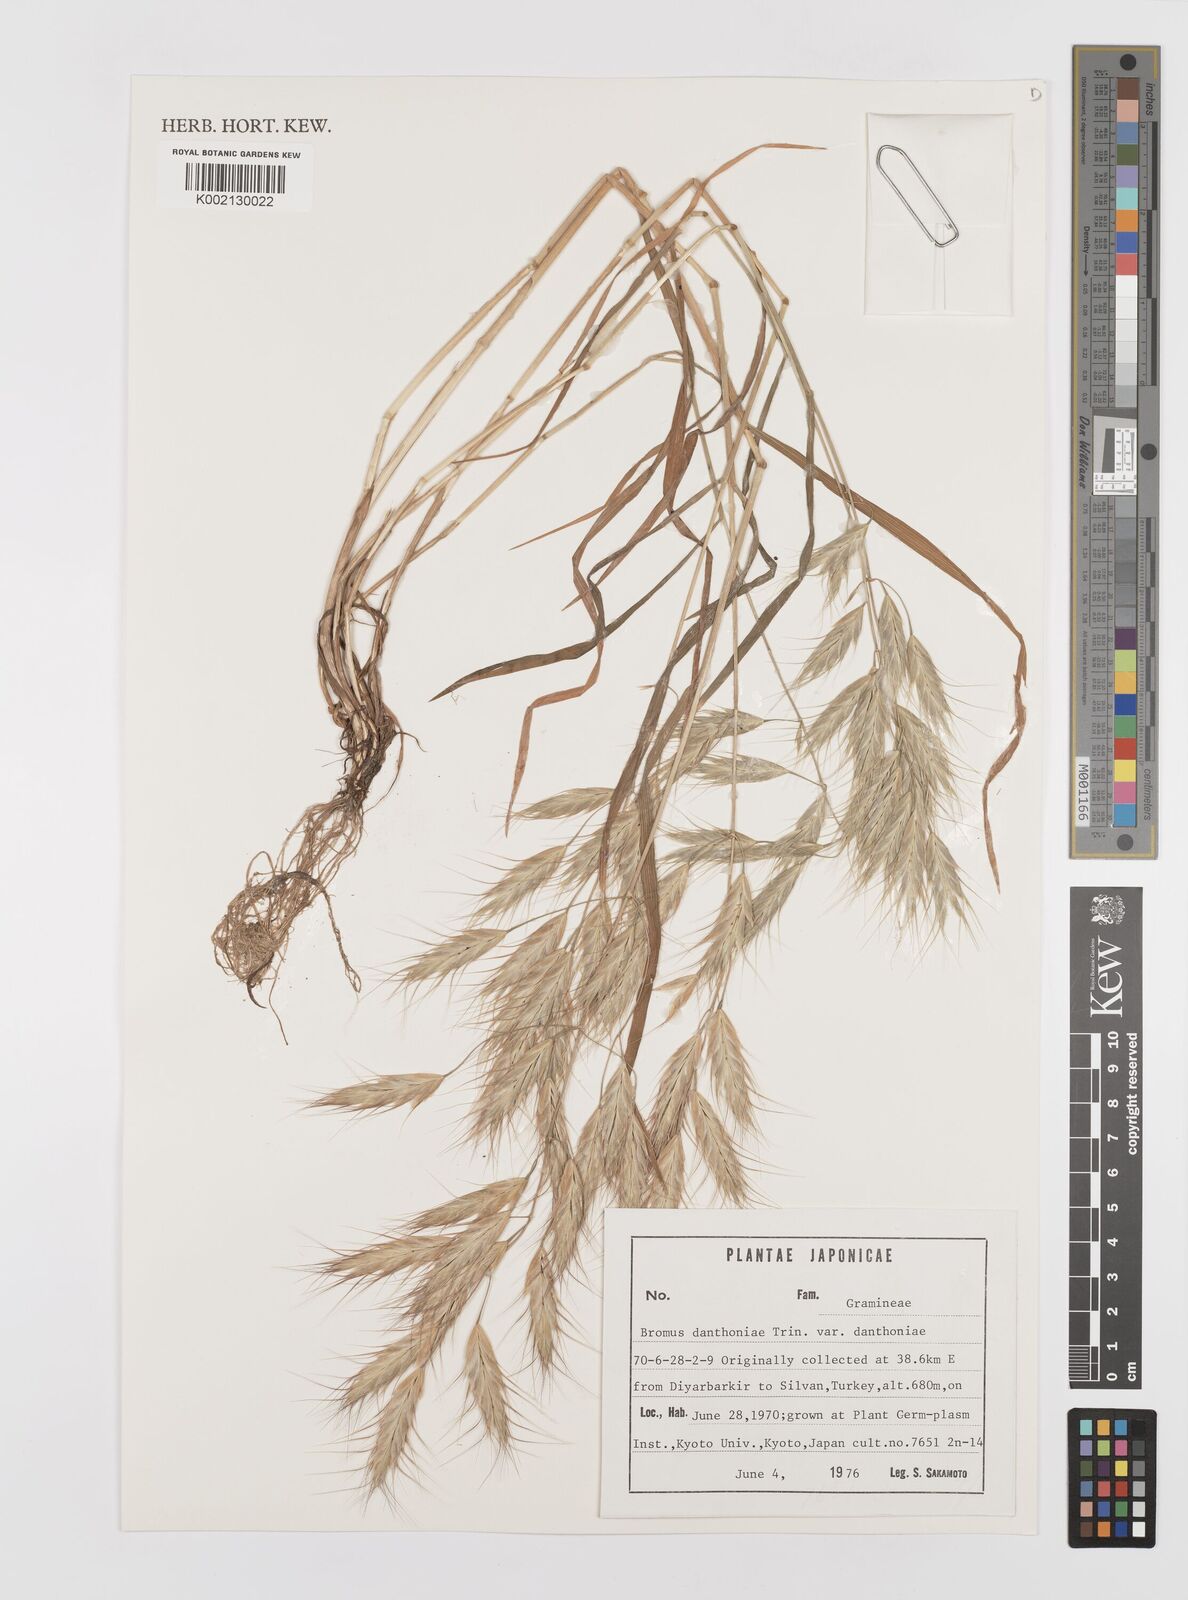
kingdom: Plantae
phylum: Tracheophyta
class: Liliopsida
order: Poales
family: Poaceae
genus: Bromus
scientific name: Bromus danthoniae
